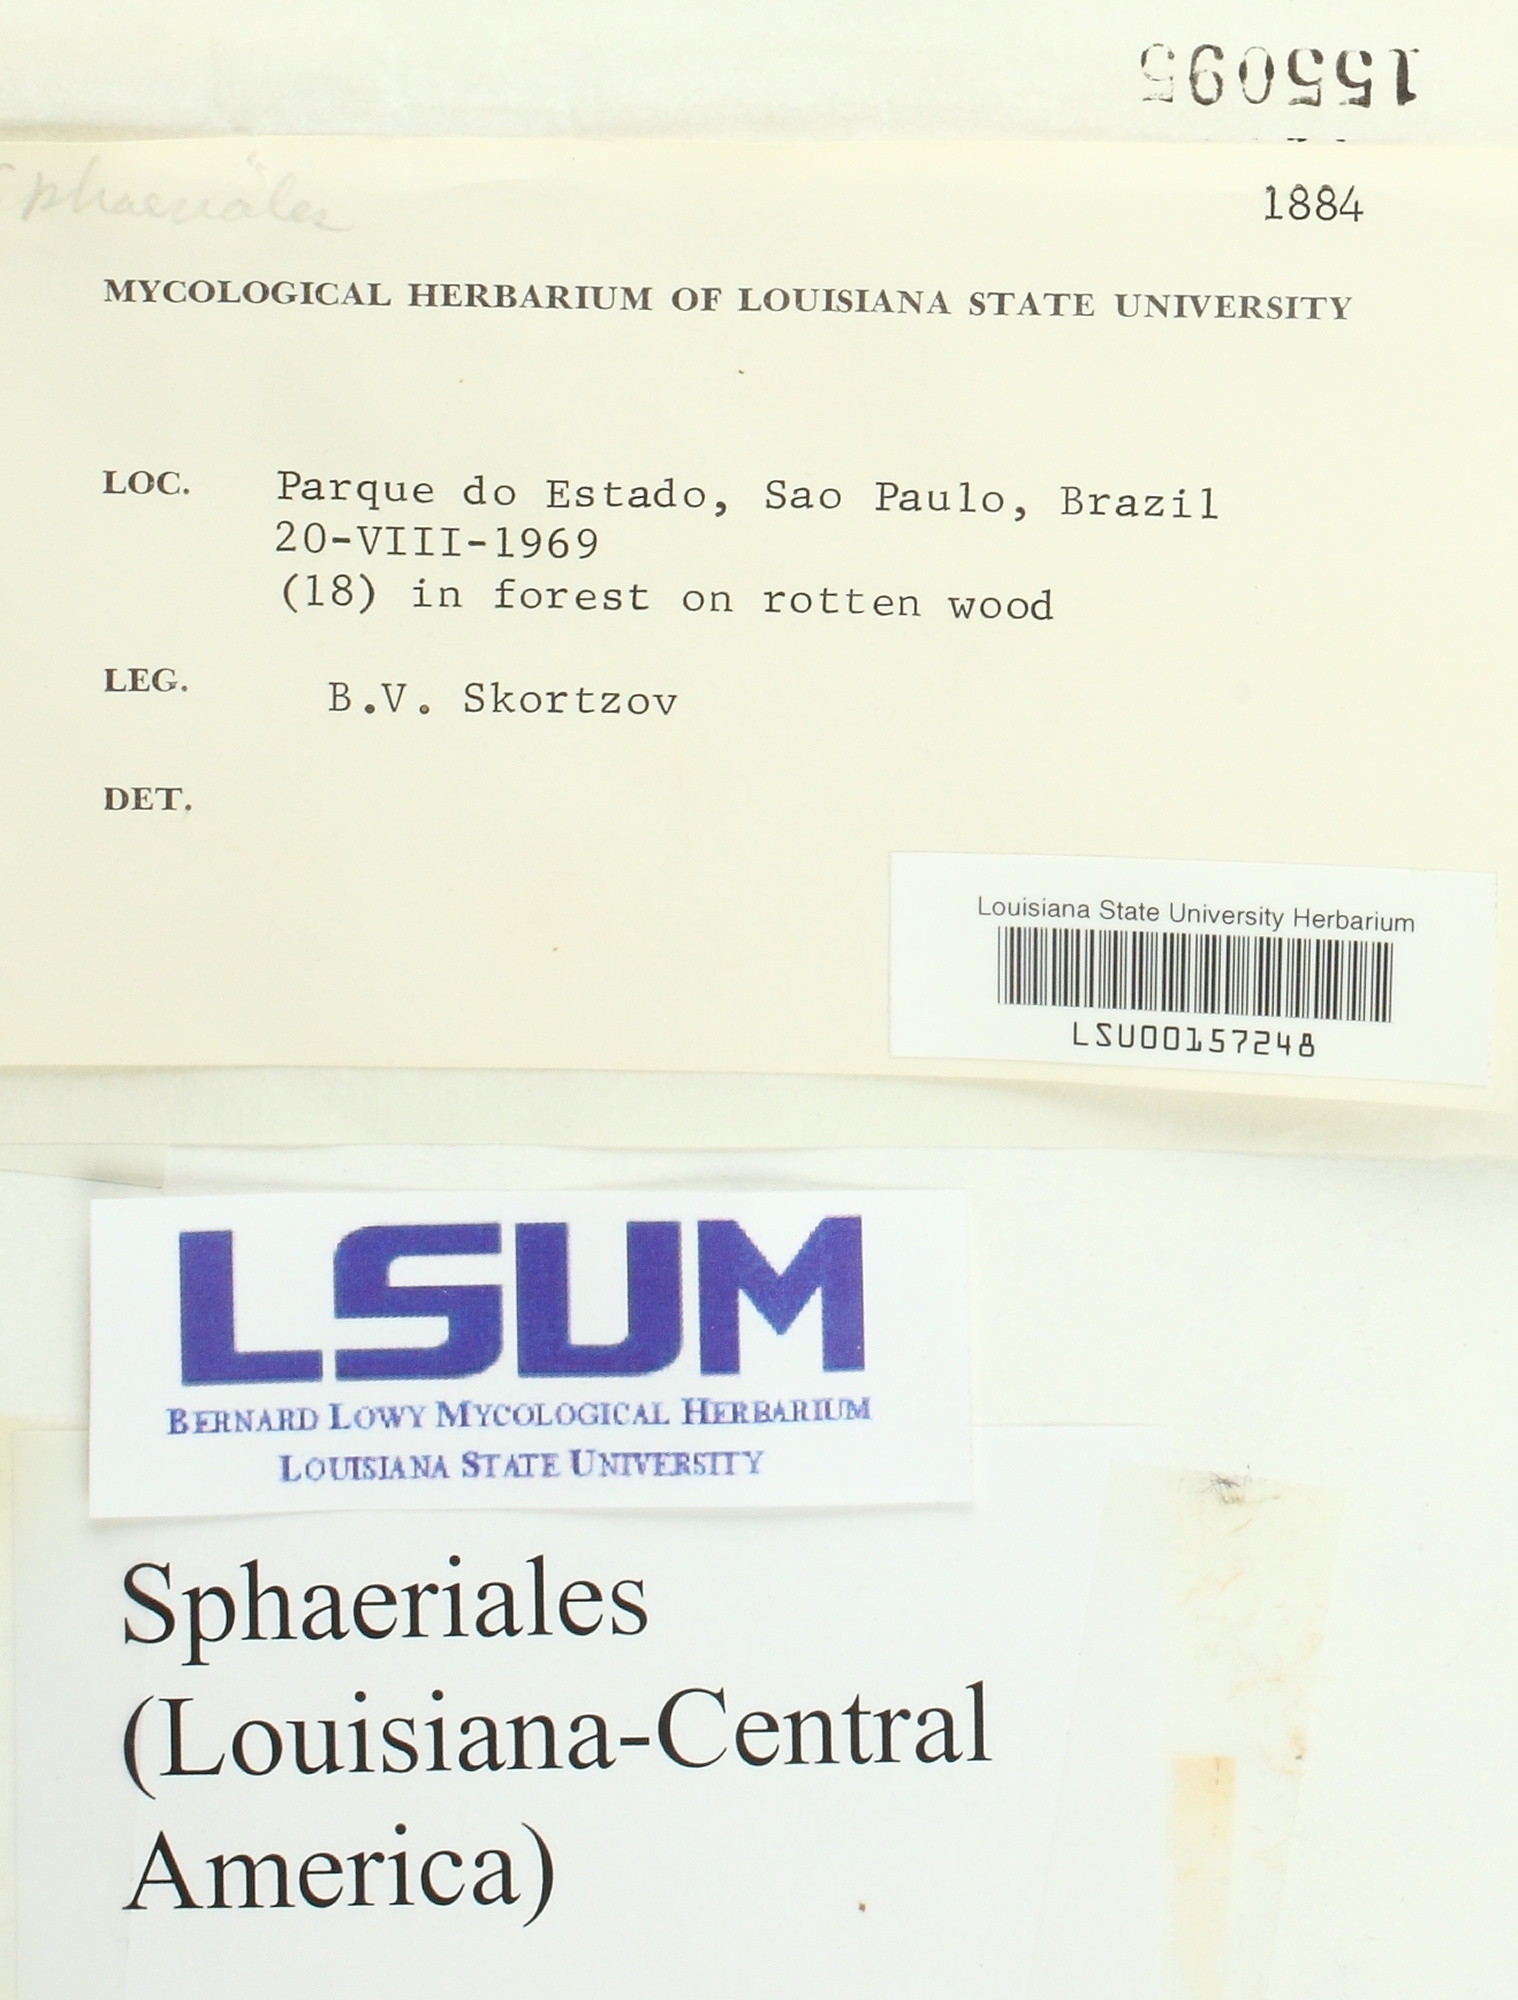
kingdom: Fungi
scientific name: Fungi
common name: Fungi
